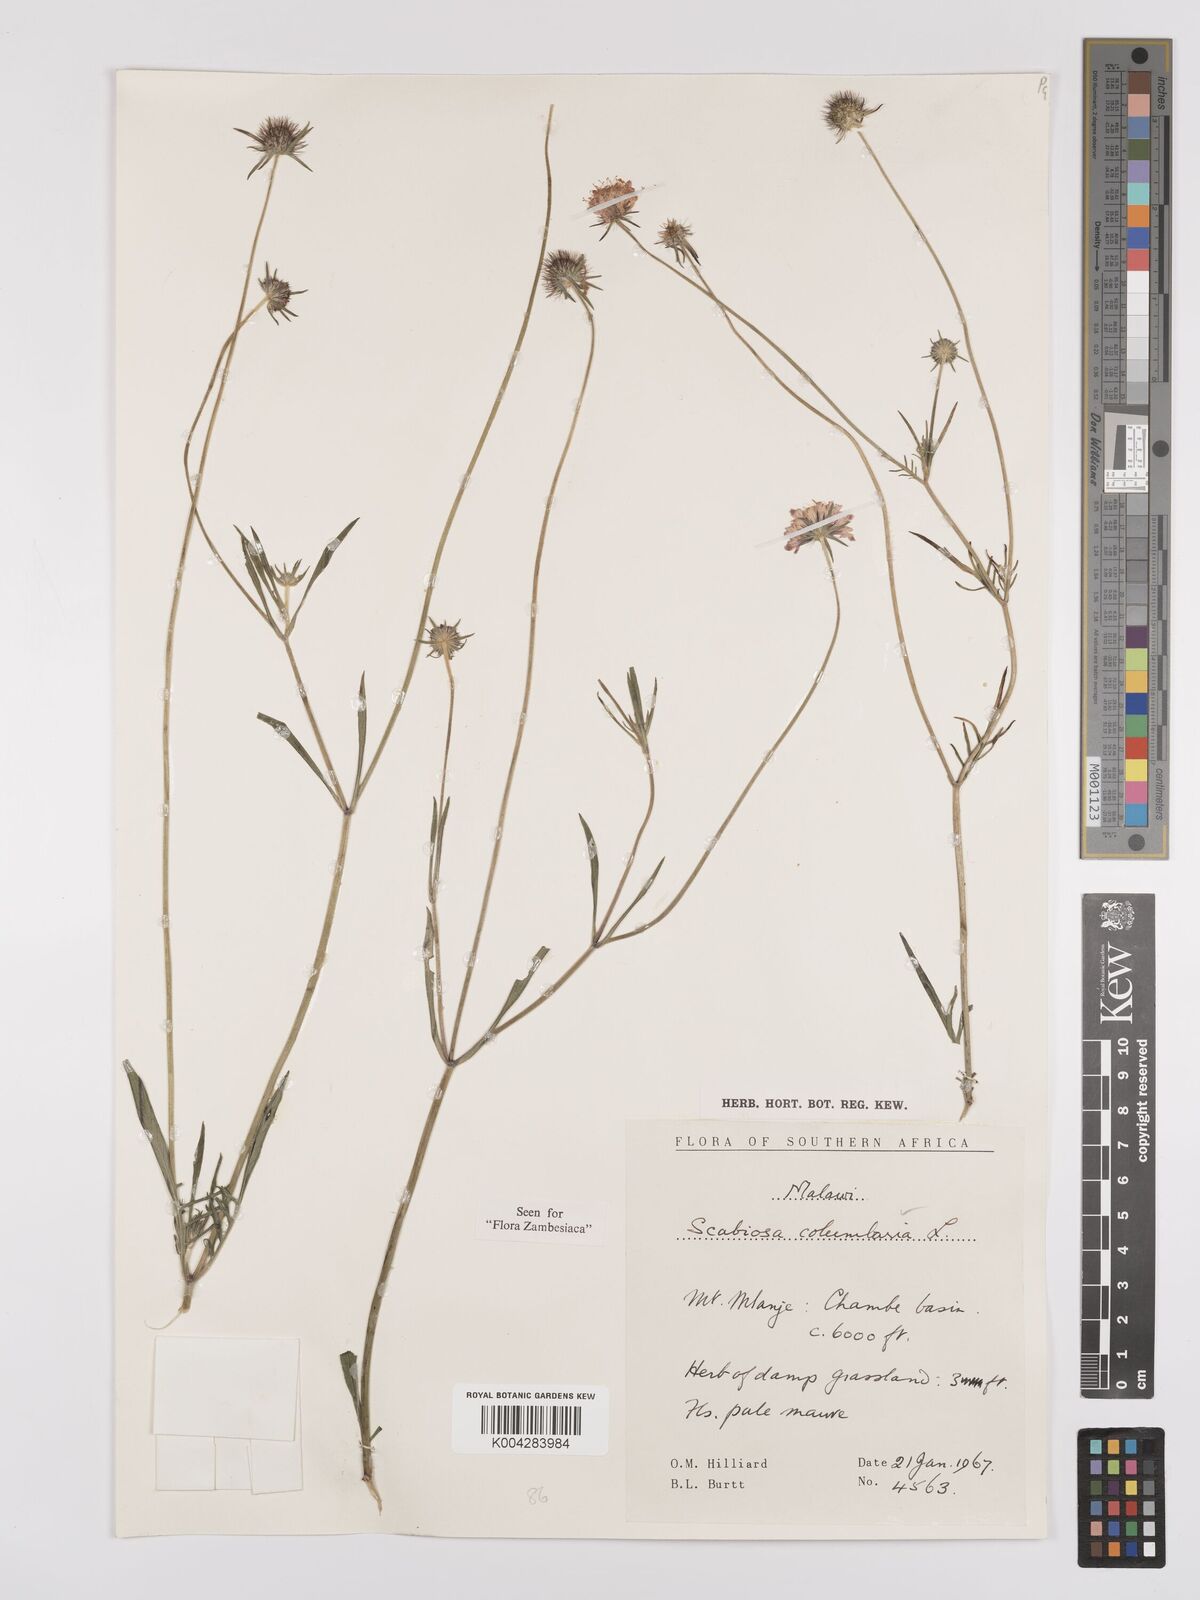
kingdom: Plantae
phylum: Tracheophyta
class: Magnoliopsida
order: Dipsacales
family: Caprifoliaceae
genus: Scabiosa
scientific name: Scabiosa columbaria
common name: Small scabious
